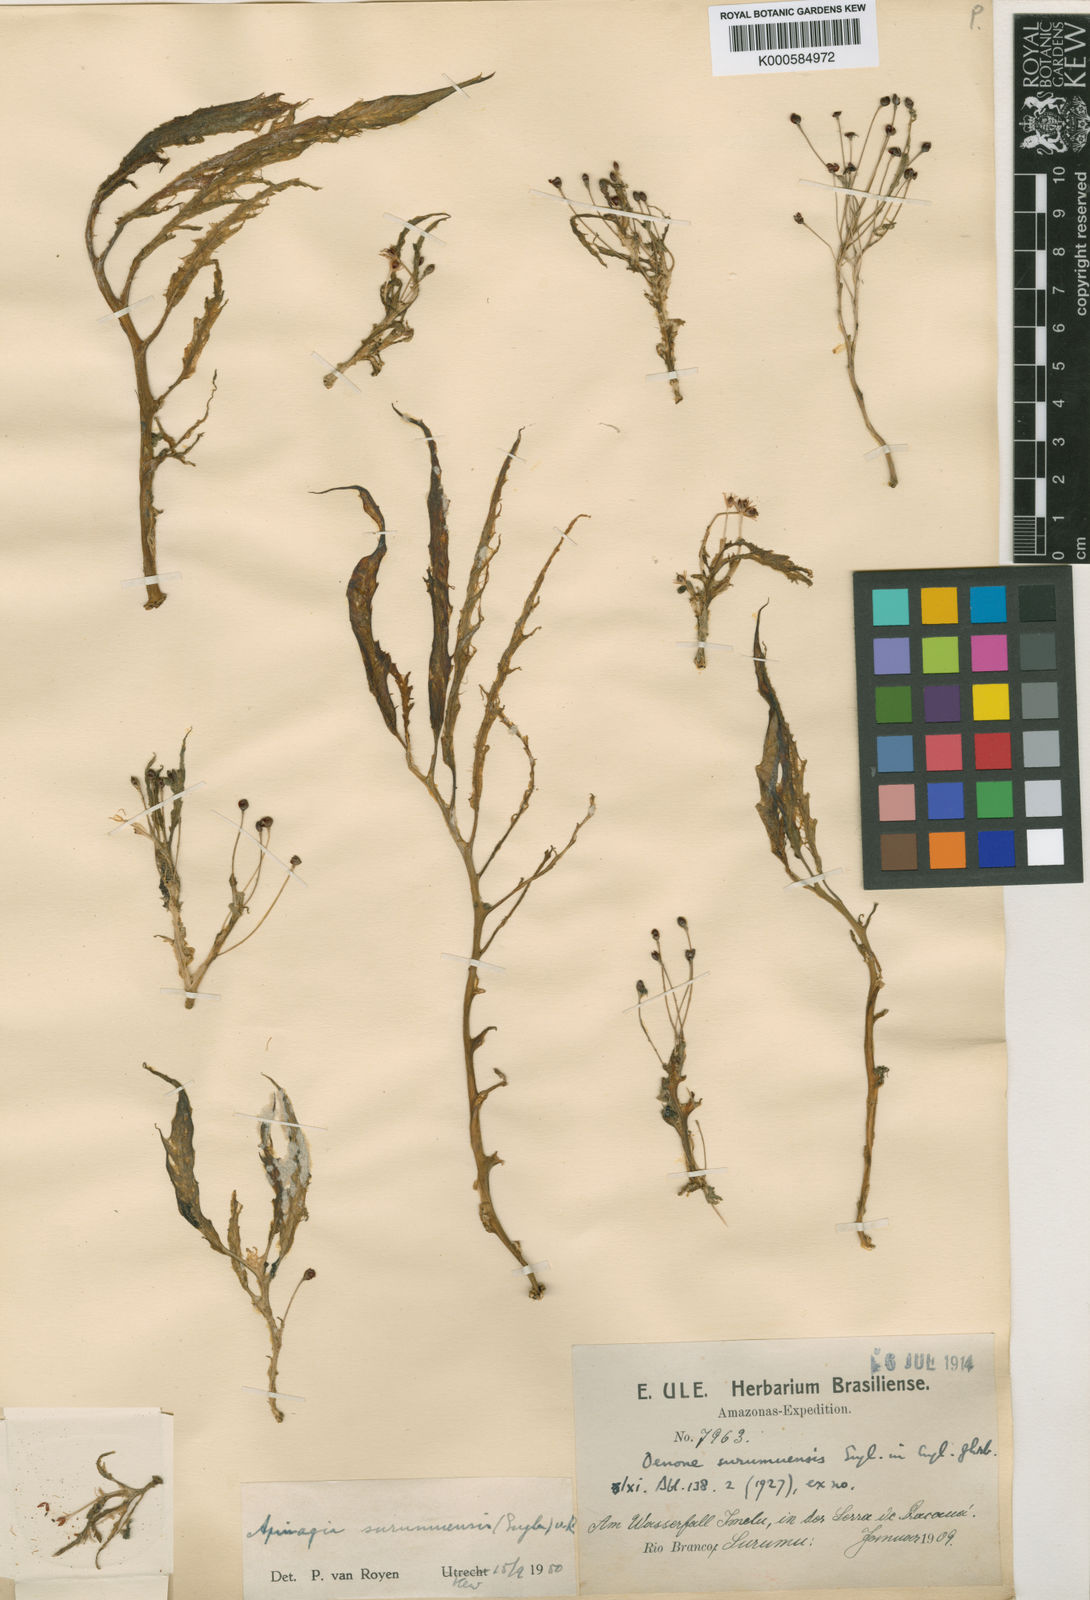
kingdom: Plantae
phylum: Tracheophyta
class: Magnoliopsida
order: Malpighiales
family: Podostemaceae
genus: Apinagia
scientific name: Apinagia surumuensis
